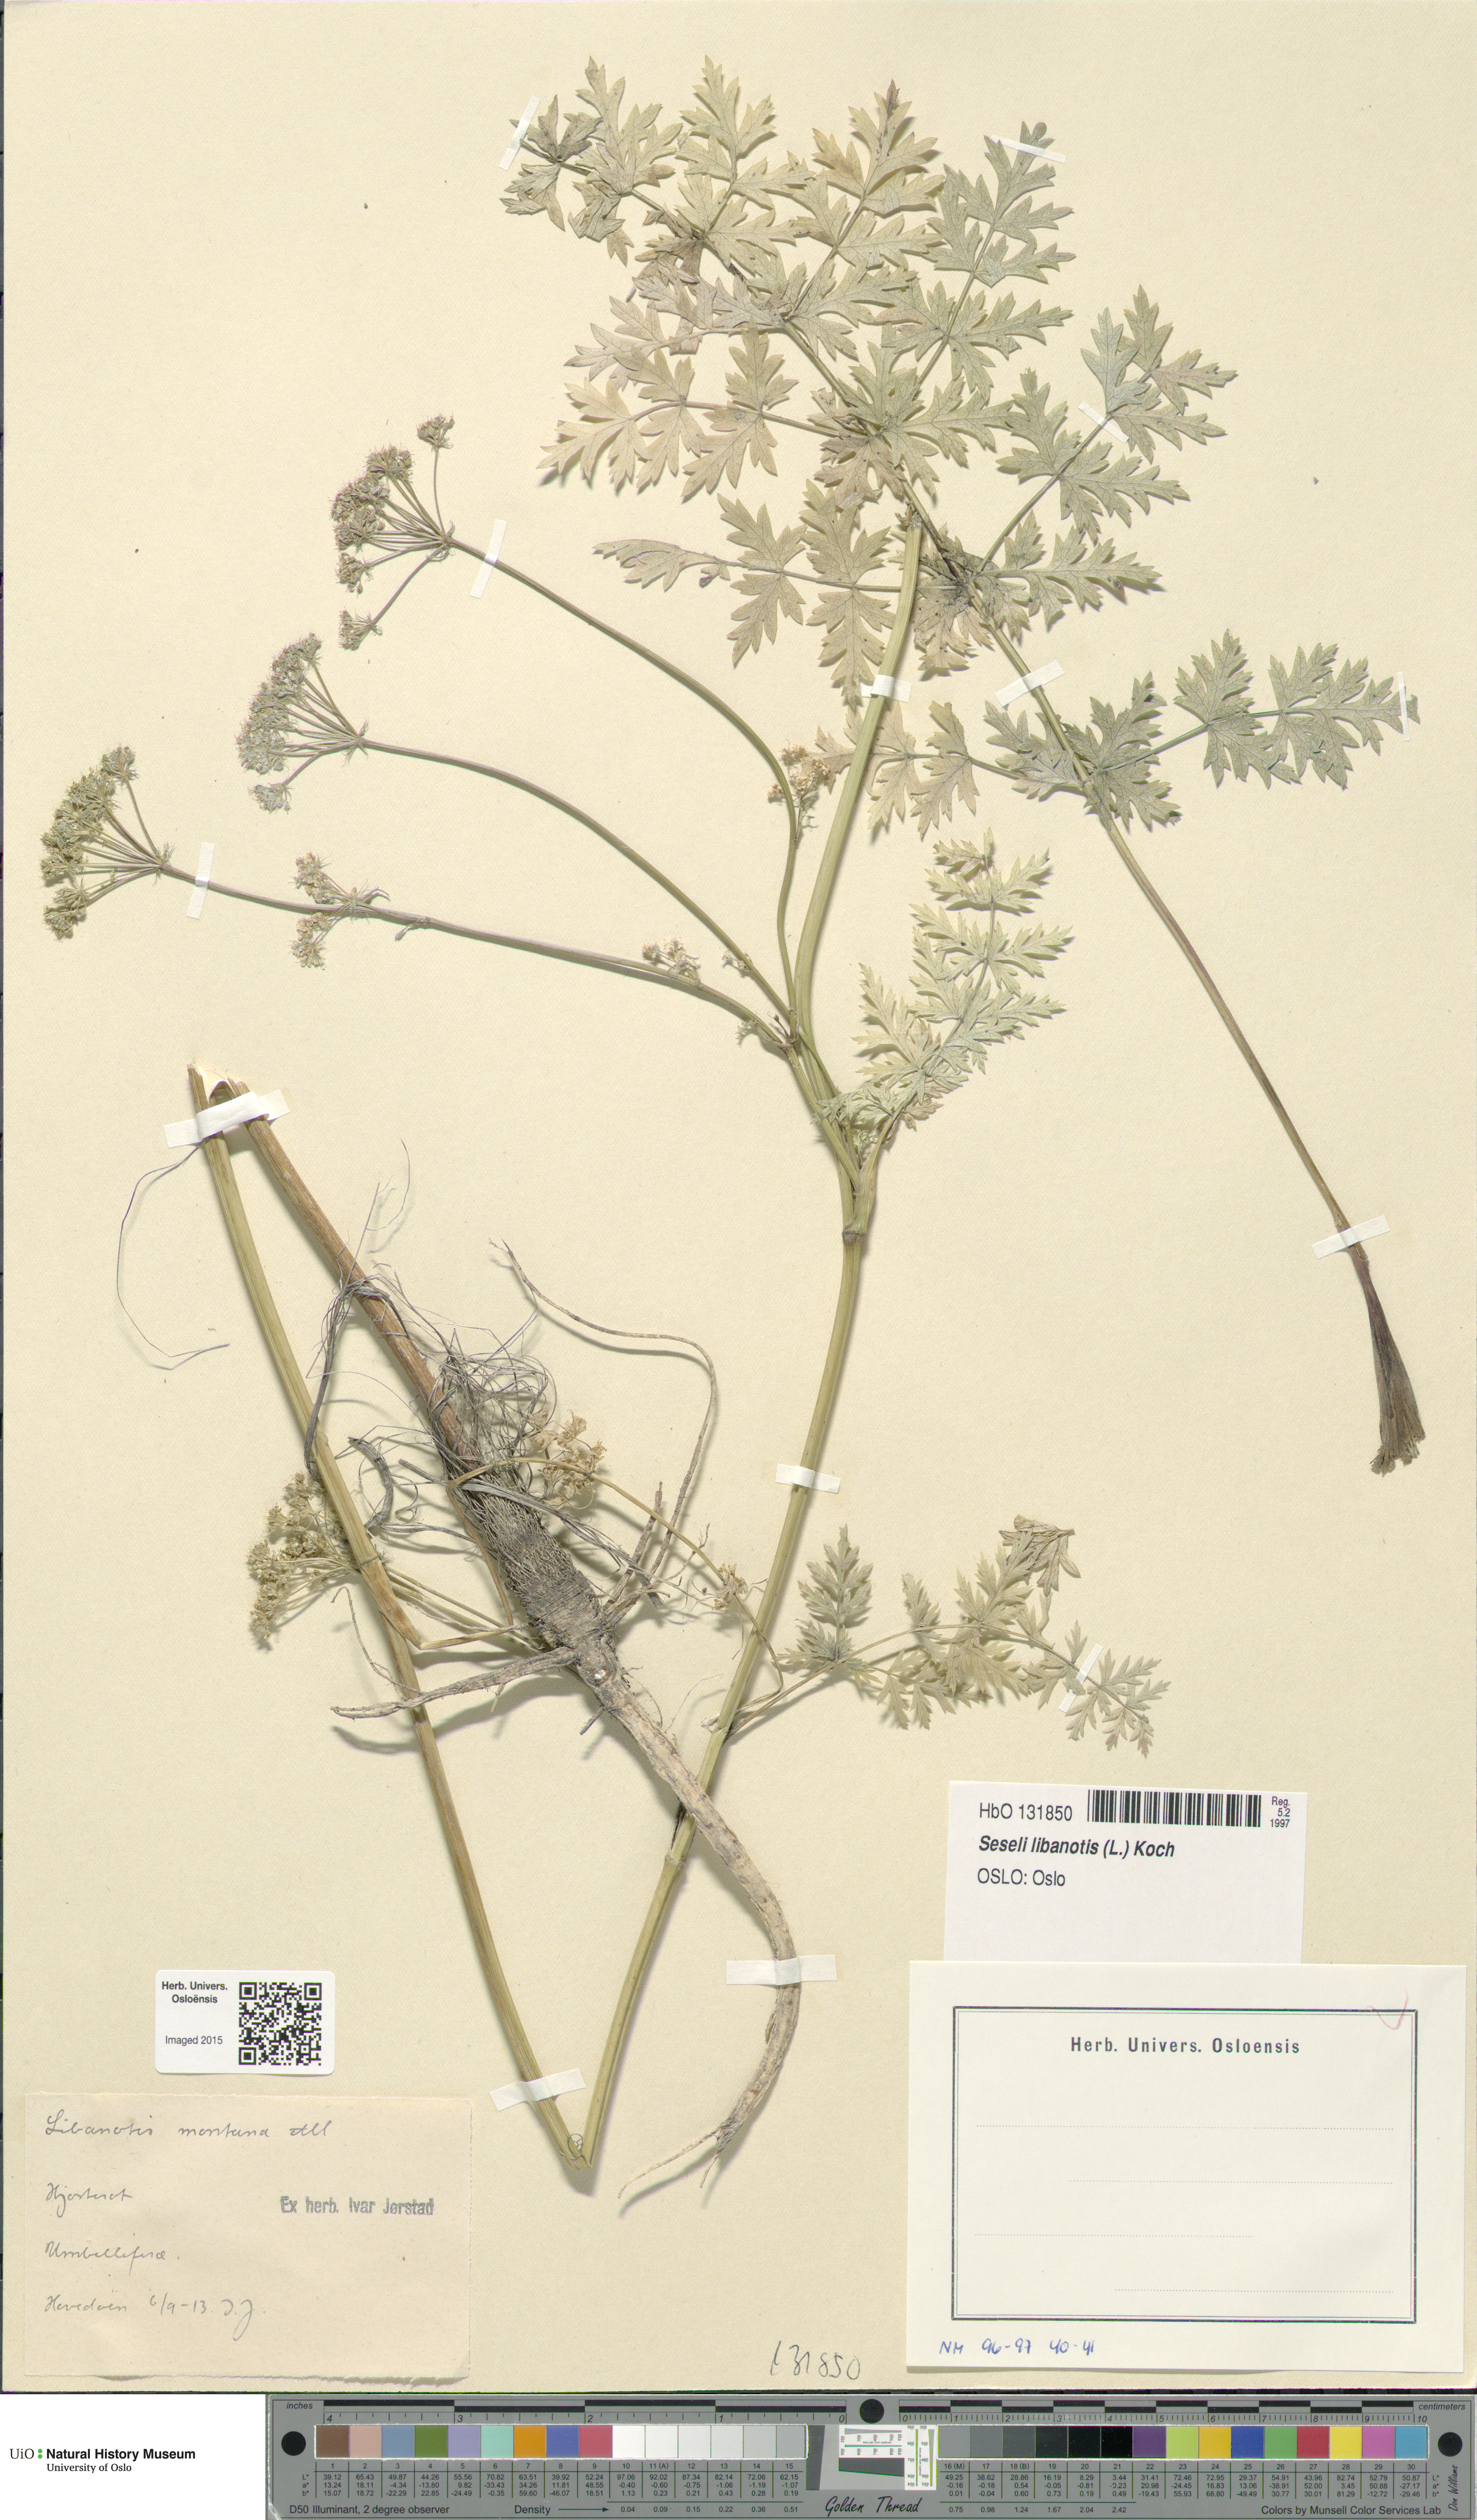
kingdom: Plantae
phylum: Tracheophyta
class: Magnoliopsida
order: Apiales
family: Apiaceae
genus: Seseli
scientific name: Seseli libanotis
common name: Mooncarrot
